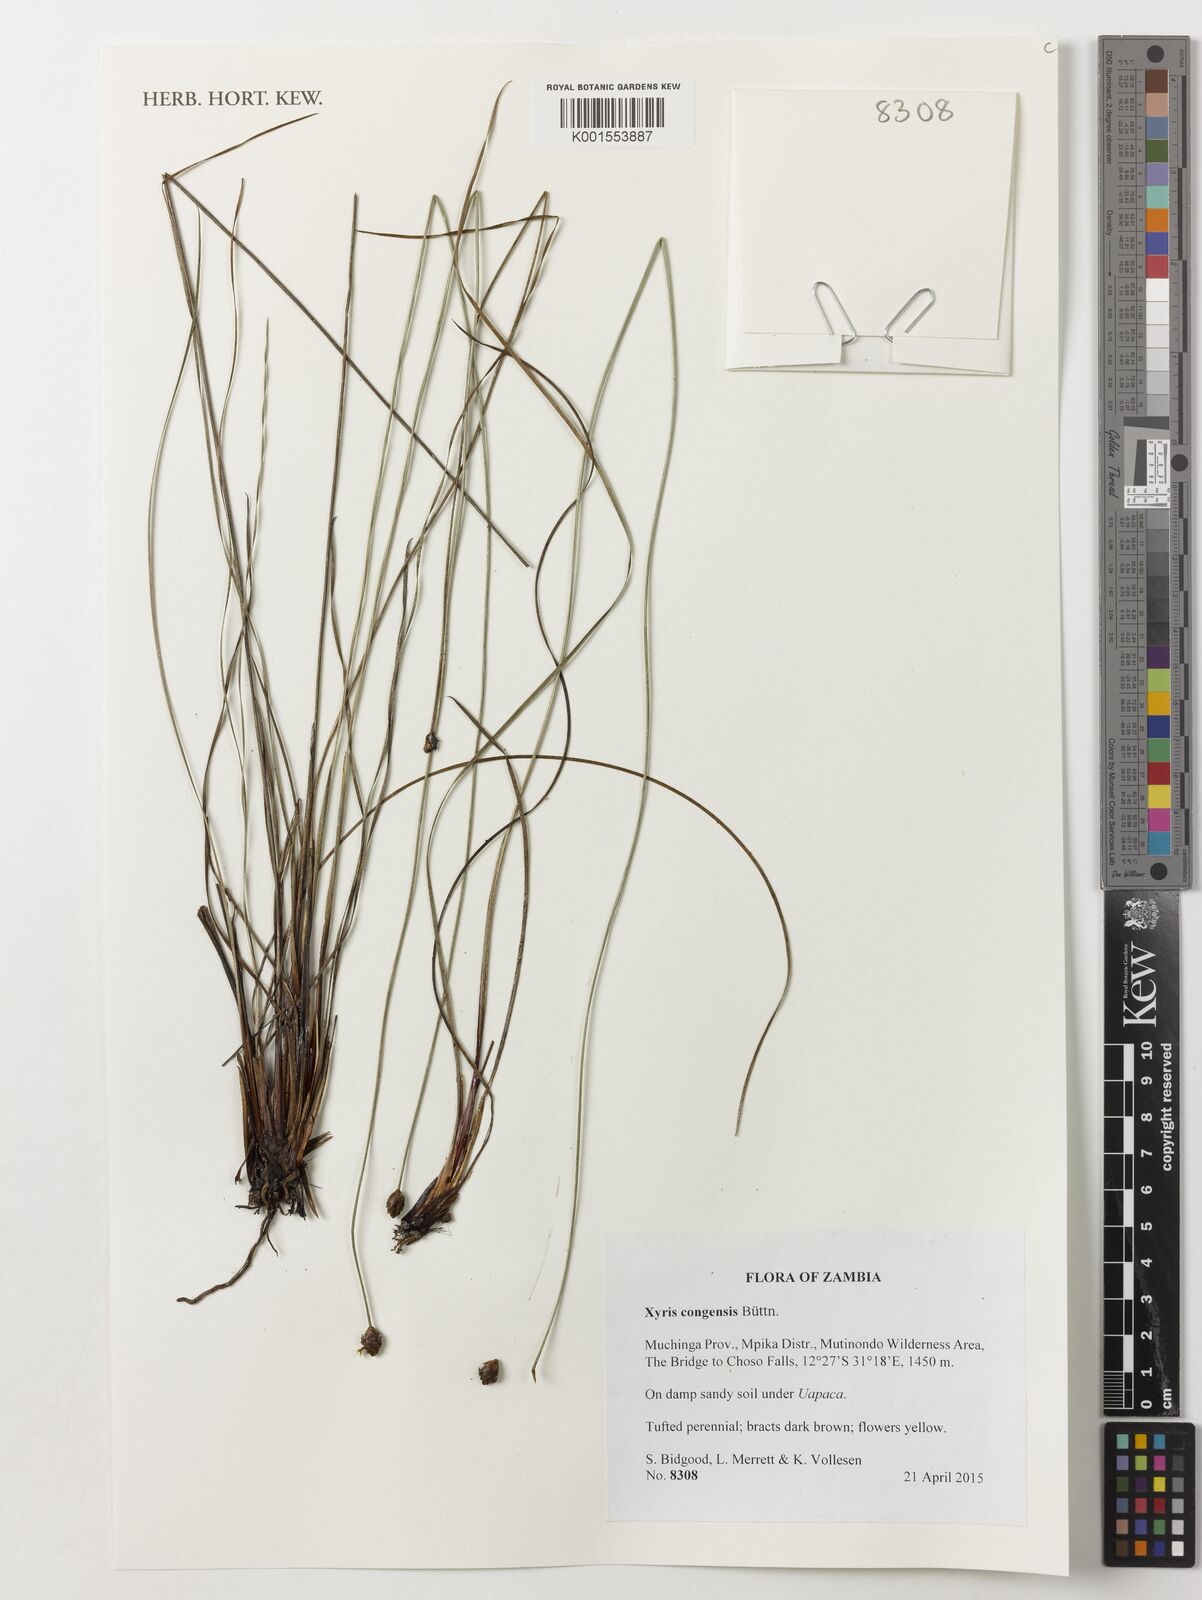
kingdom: Plantae
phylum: Tracheophyta
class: Liliopsida
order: Poales
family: Xyridaceae
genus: Xyris
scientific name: Xyris congensis
